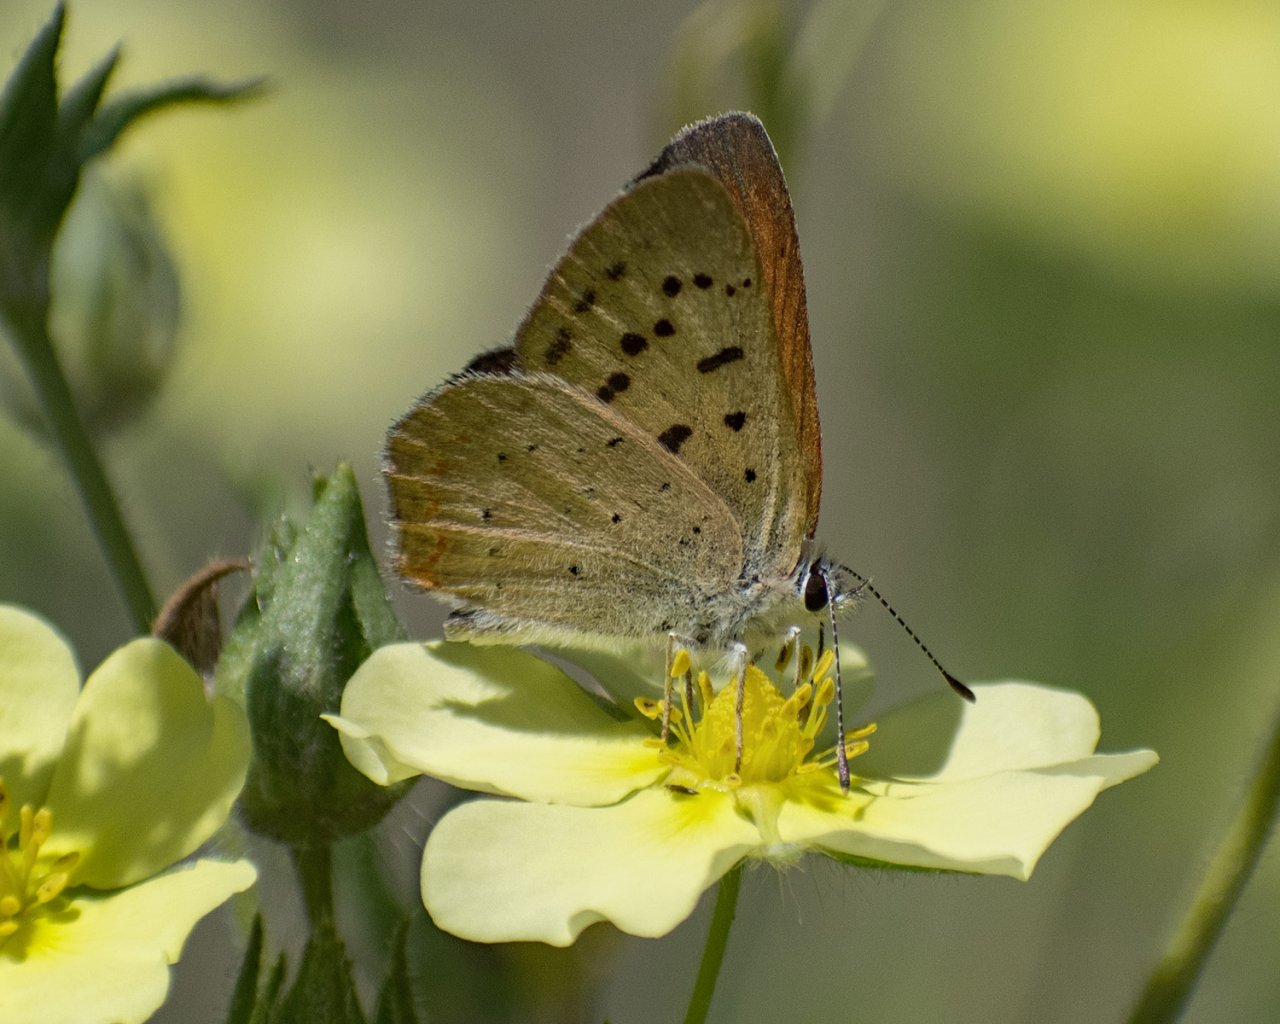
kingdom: Animalia
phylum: Arthropoda
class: Insecta
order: Lepidoptera
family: Sesiidae
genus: Sesia
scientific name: Sesia Lycaena helloides
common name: Purplish Copper
